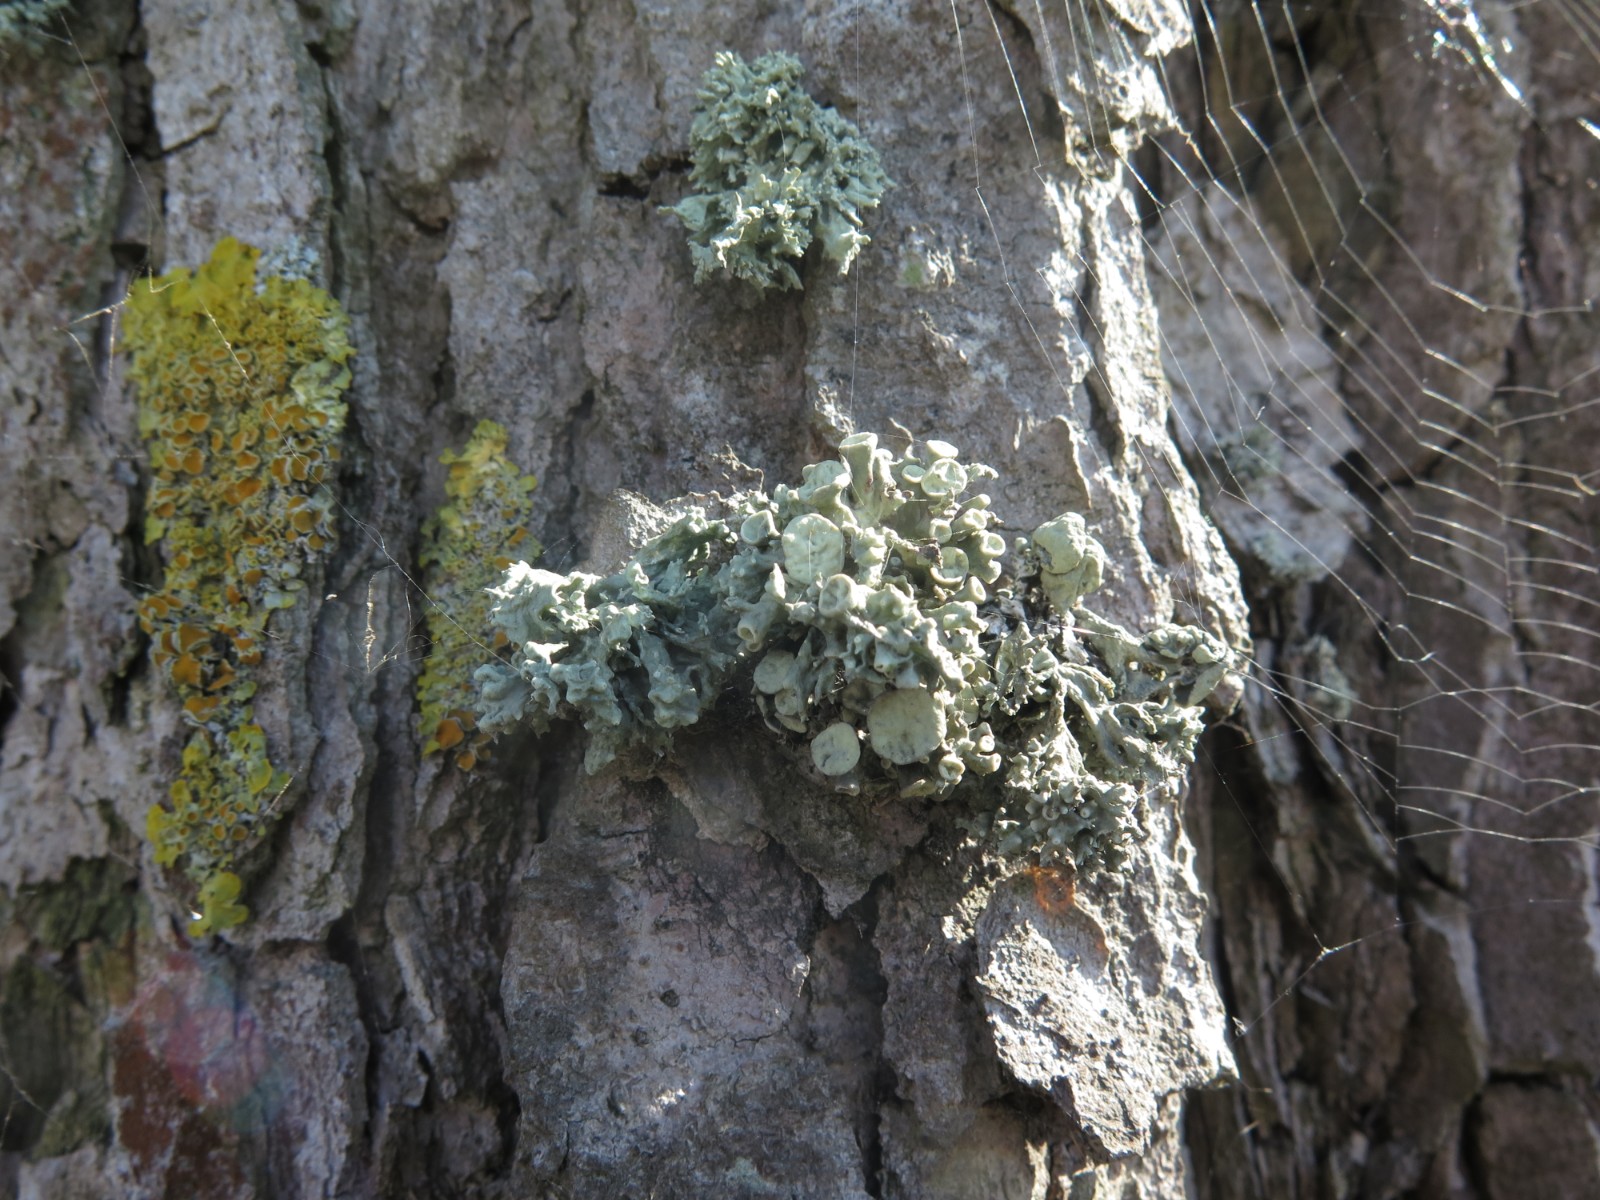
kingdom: Fungi
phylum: Ascomycota
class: Lecanoromycetes
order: Lecanorales
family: Ramalinaceae
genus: Ramalina
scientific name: Ramalina fastigiata
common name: tue-grenlav
